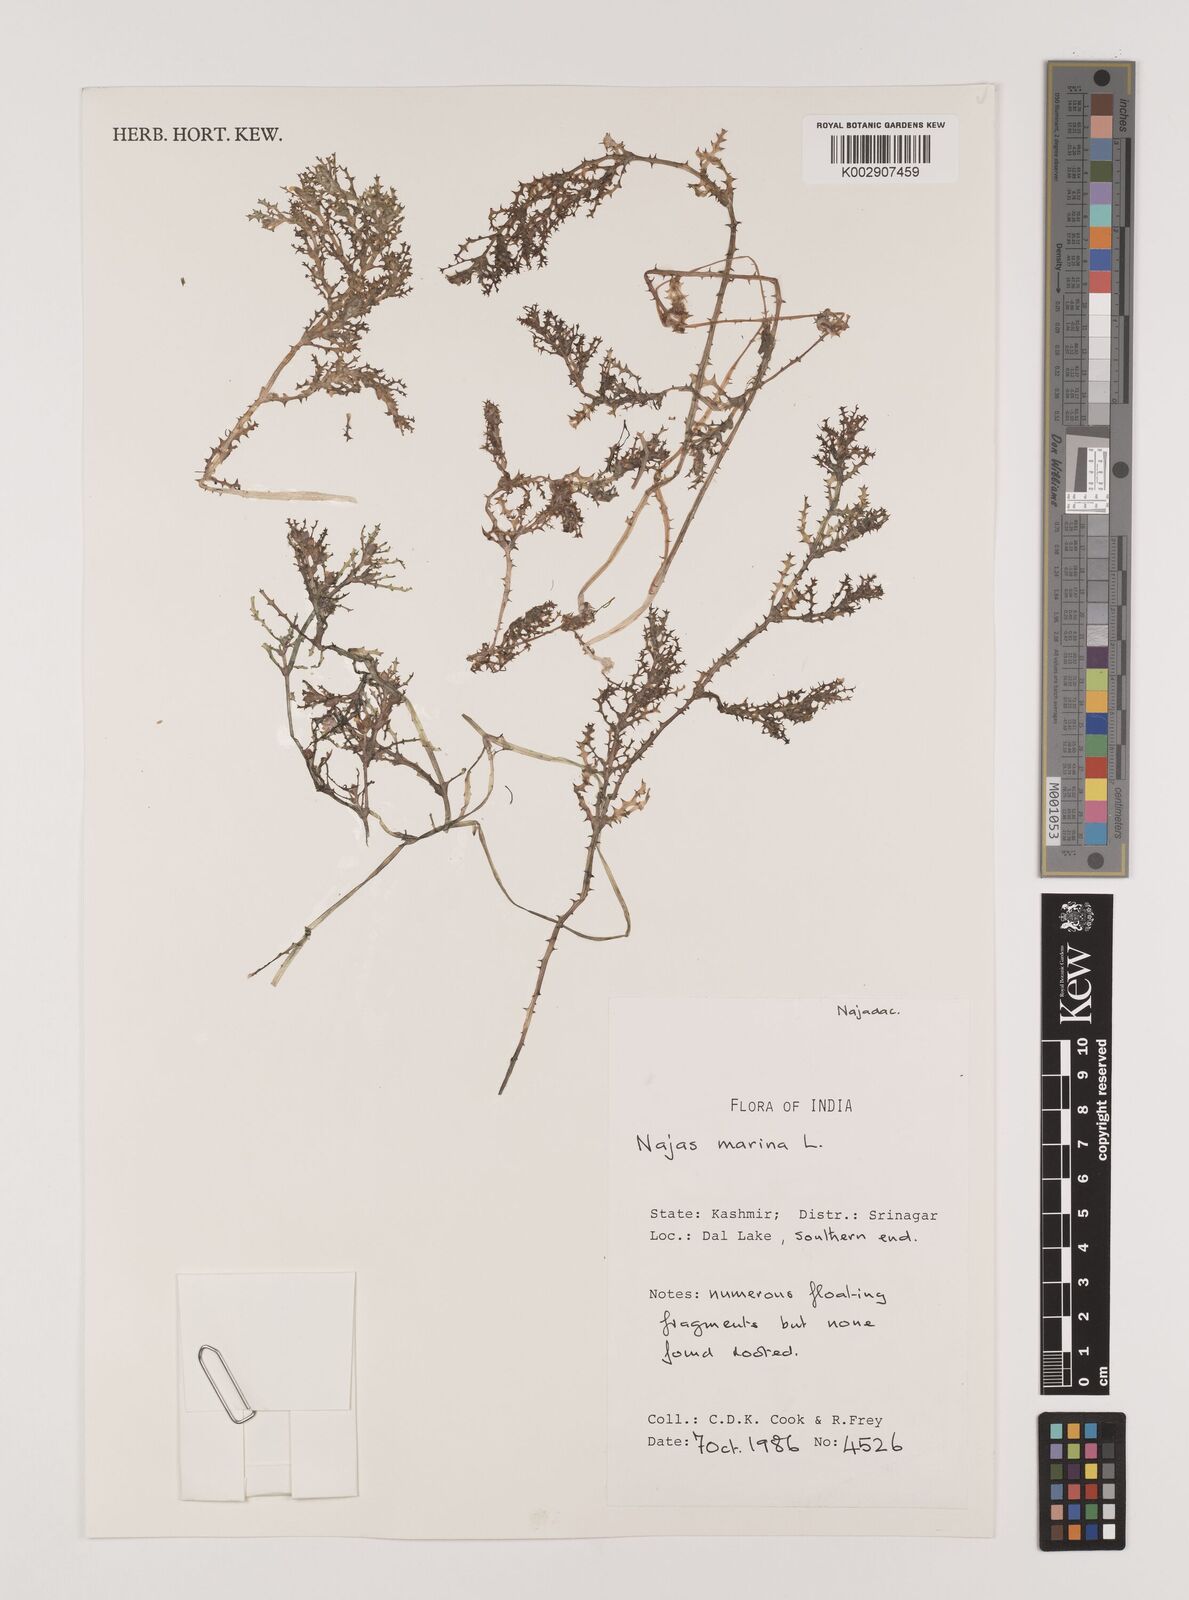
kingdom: Plantae
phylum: Tracheophyta
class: Liliopsida
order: Alismatales
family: Hydrocharitaceae
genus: Najas
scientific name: Najas marina
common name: Holly-leaved naiad
